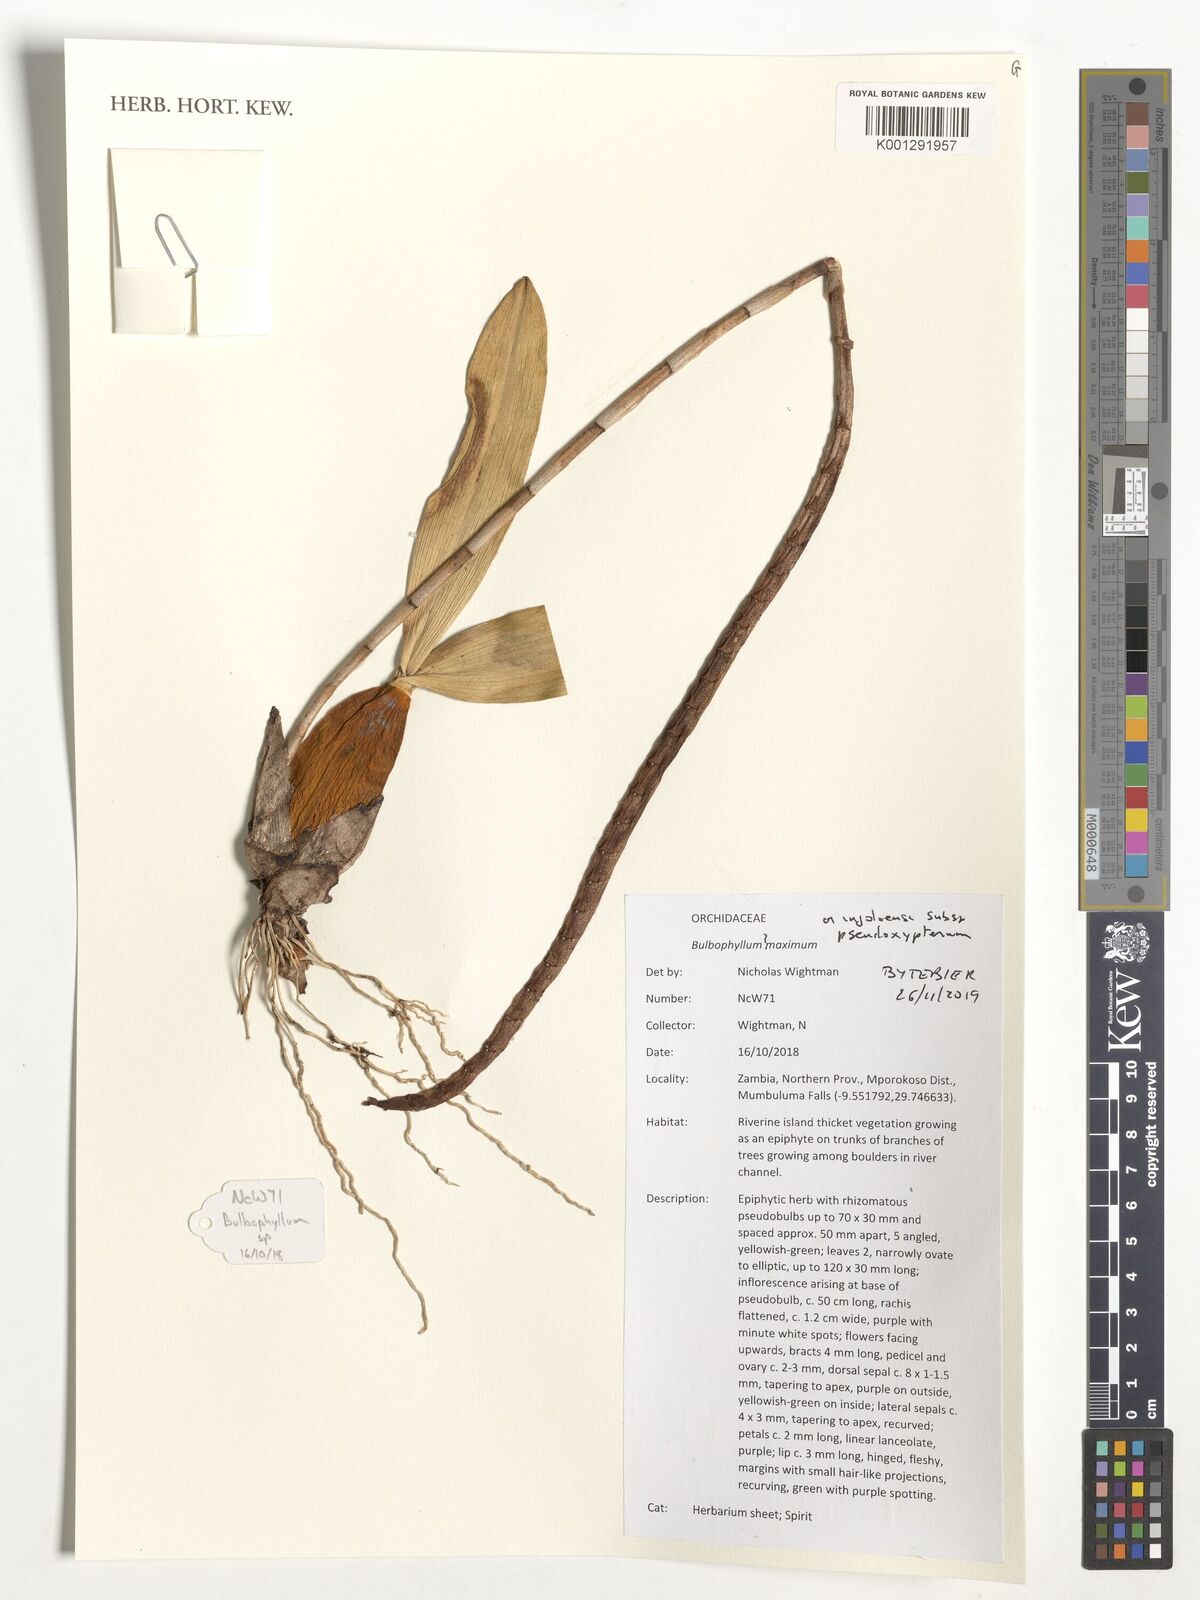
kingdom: Plantae
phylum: Tracheophyta
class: Liliopsida
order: Asparagales
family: Orchidaceae
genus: Bulbophyllum
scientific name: Bulbophyllum injoloense
